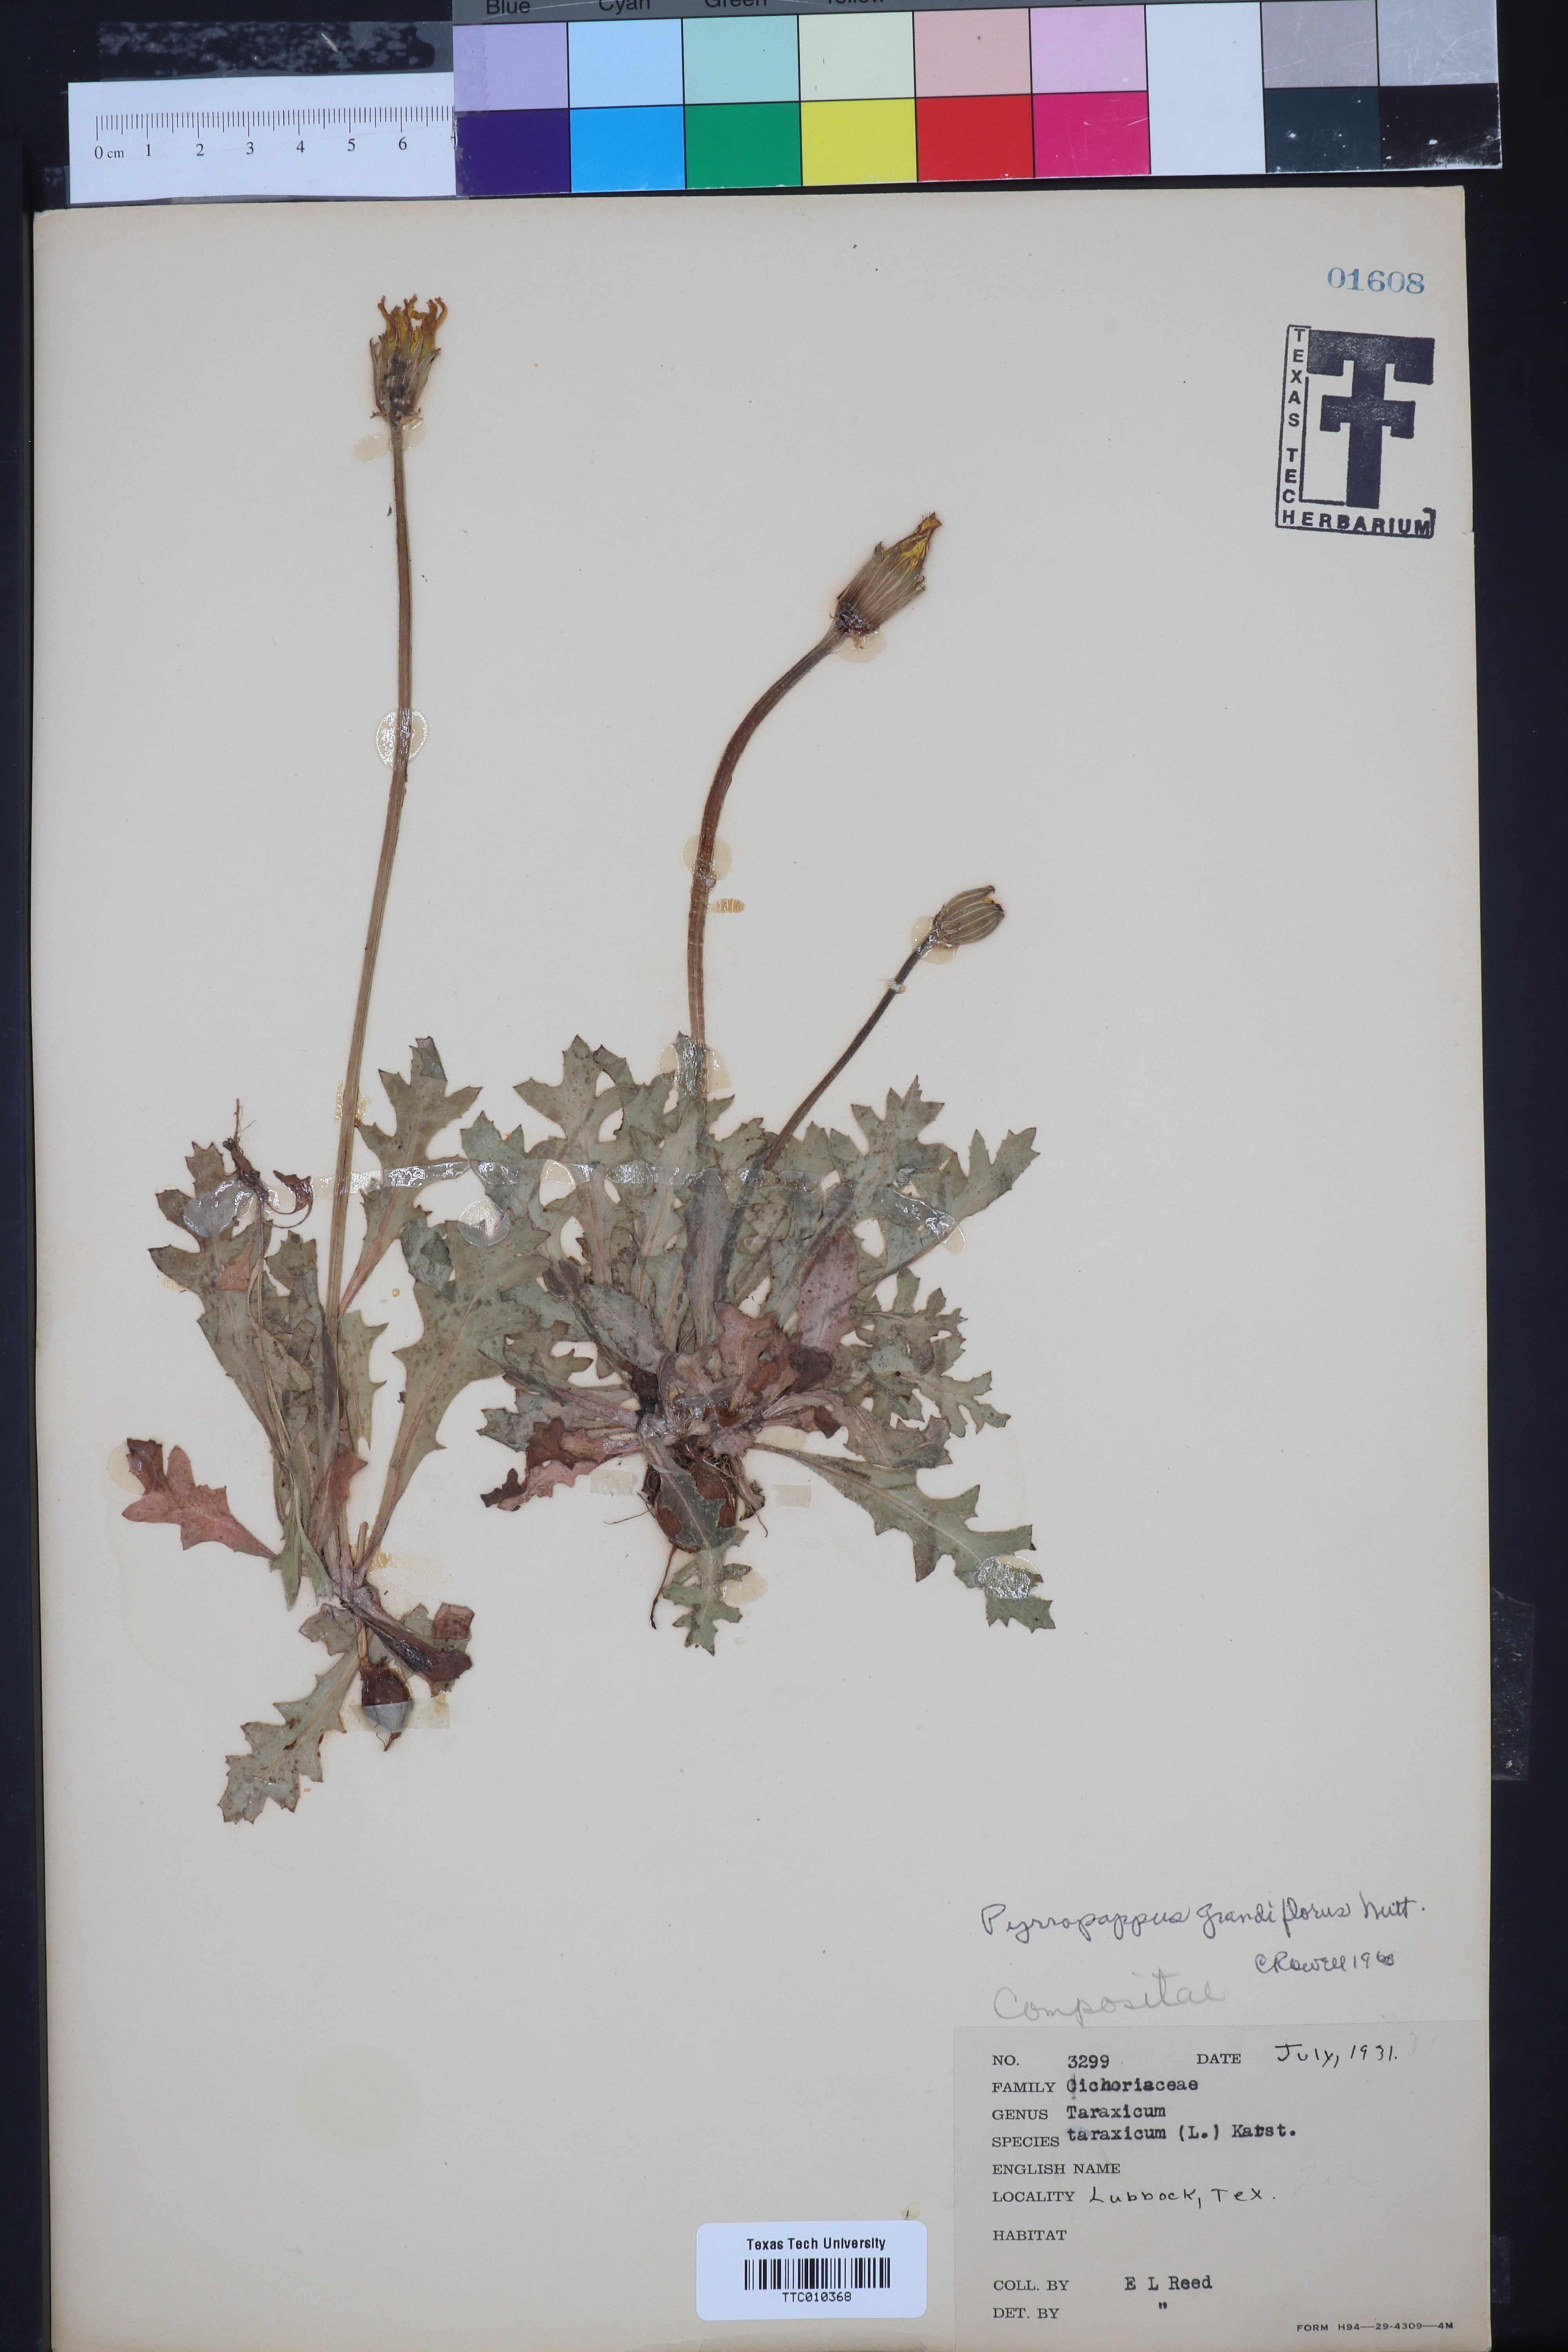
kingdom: Plantae
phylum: Tracheophyta
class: Magnoliopsida
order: Asterales
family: Asteraceae
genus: Pyrrhopappus
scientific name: Pyrrhopappus grandiflorus
